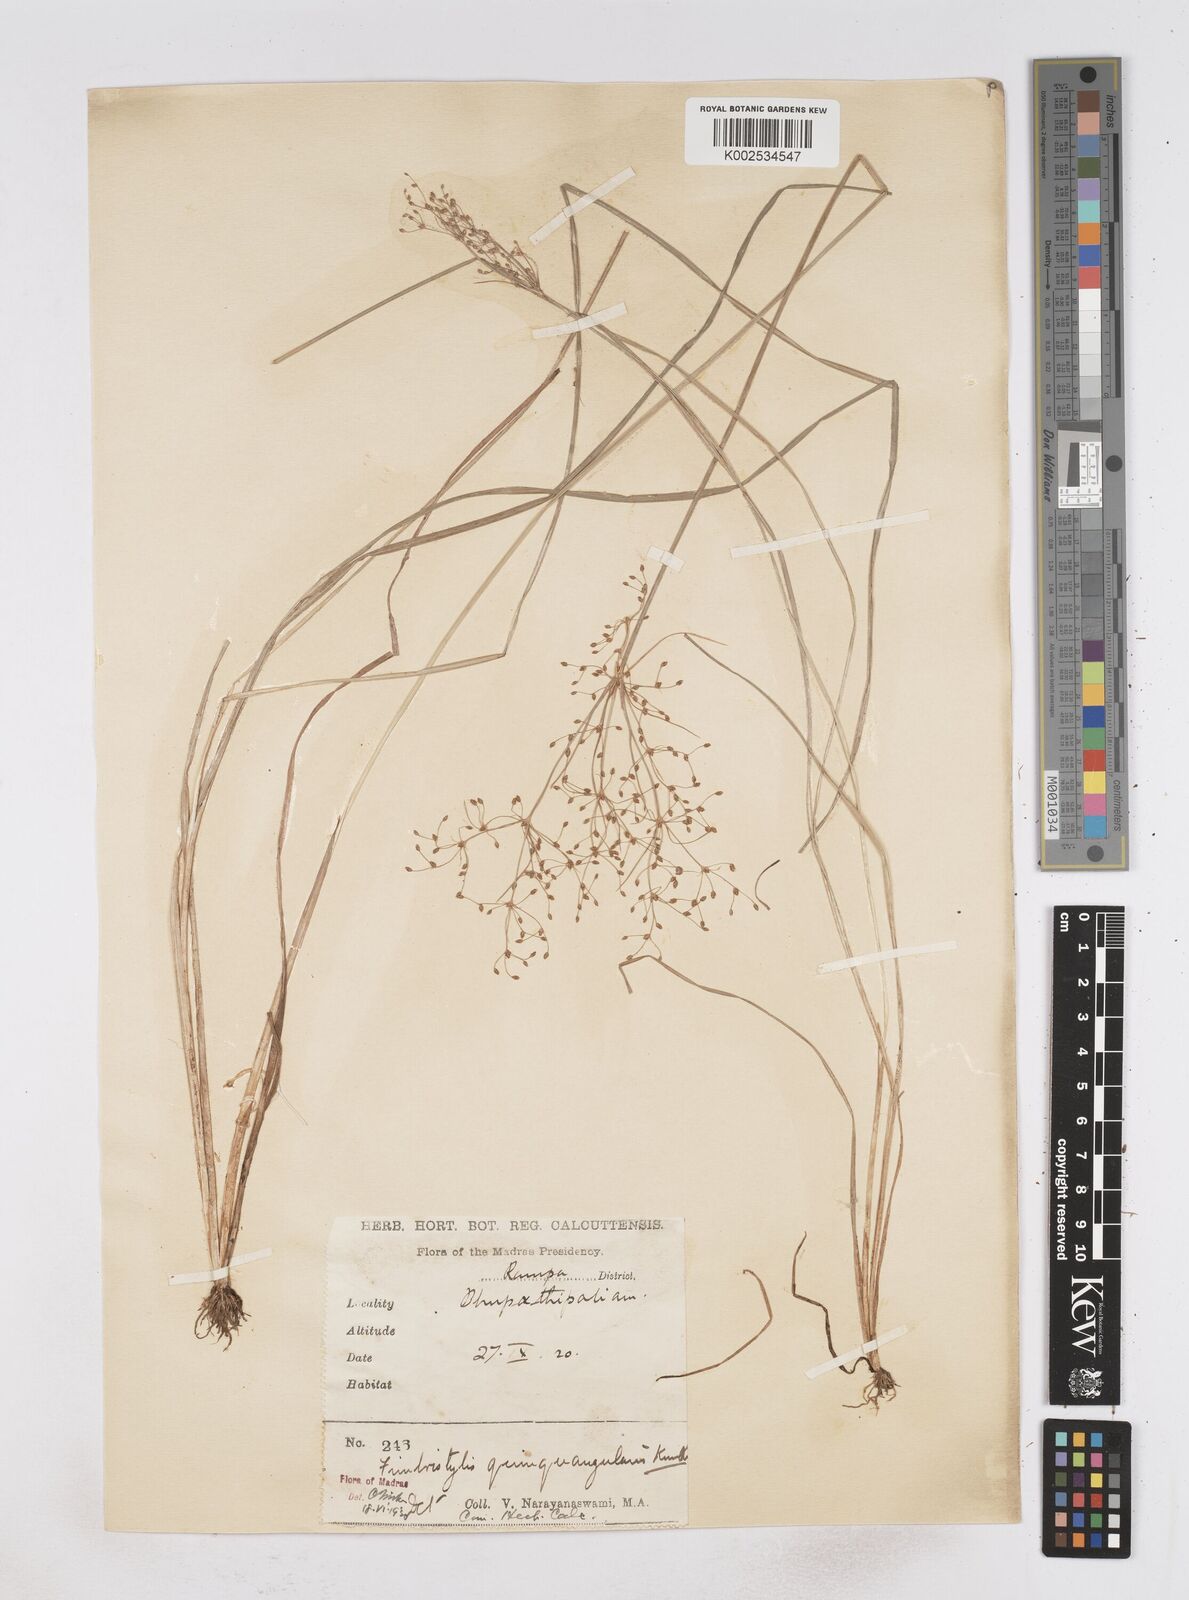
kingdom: Plantae
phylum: Tracheophyta
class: Liliopsida
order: Poales
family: Cyperaceae
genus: Fimbristylis
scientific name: Fimbristylis quinquangularis
